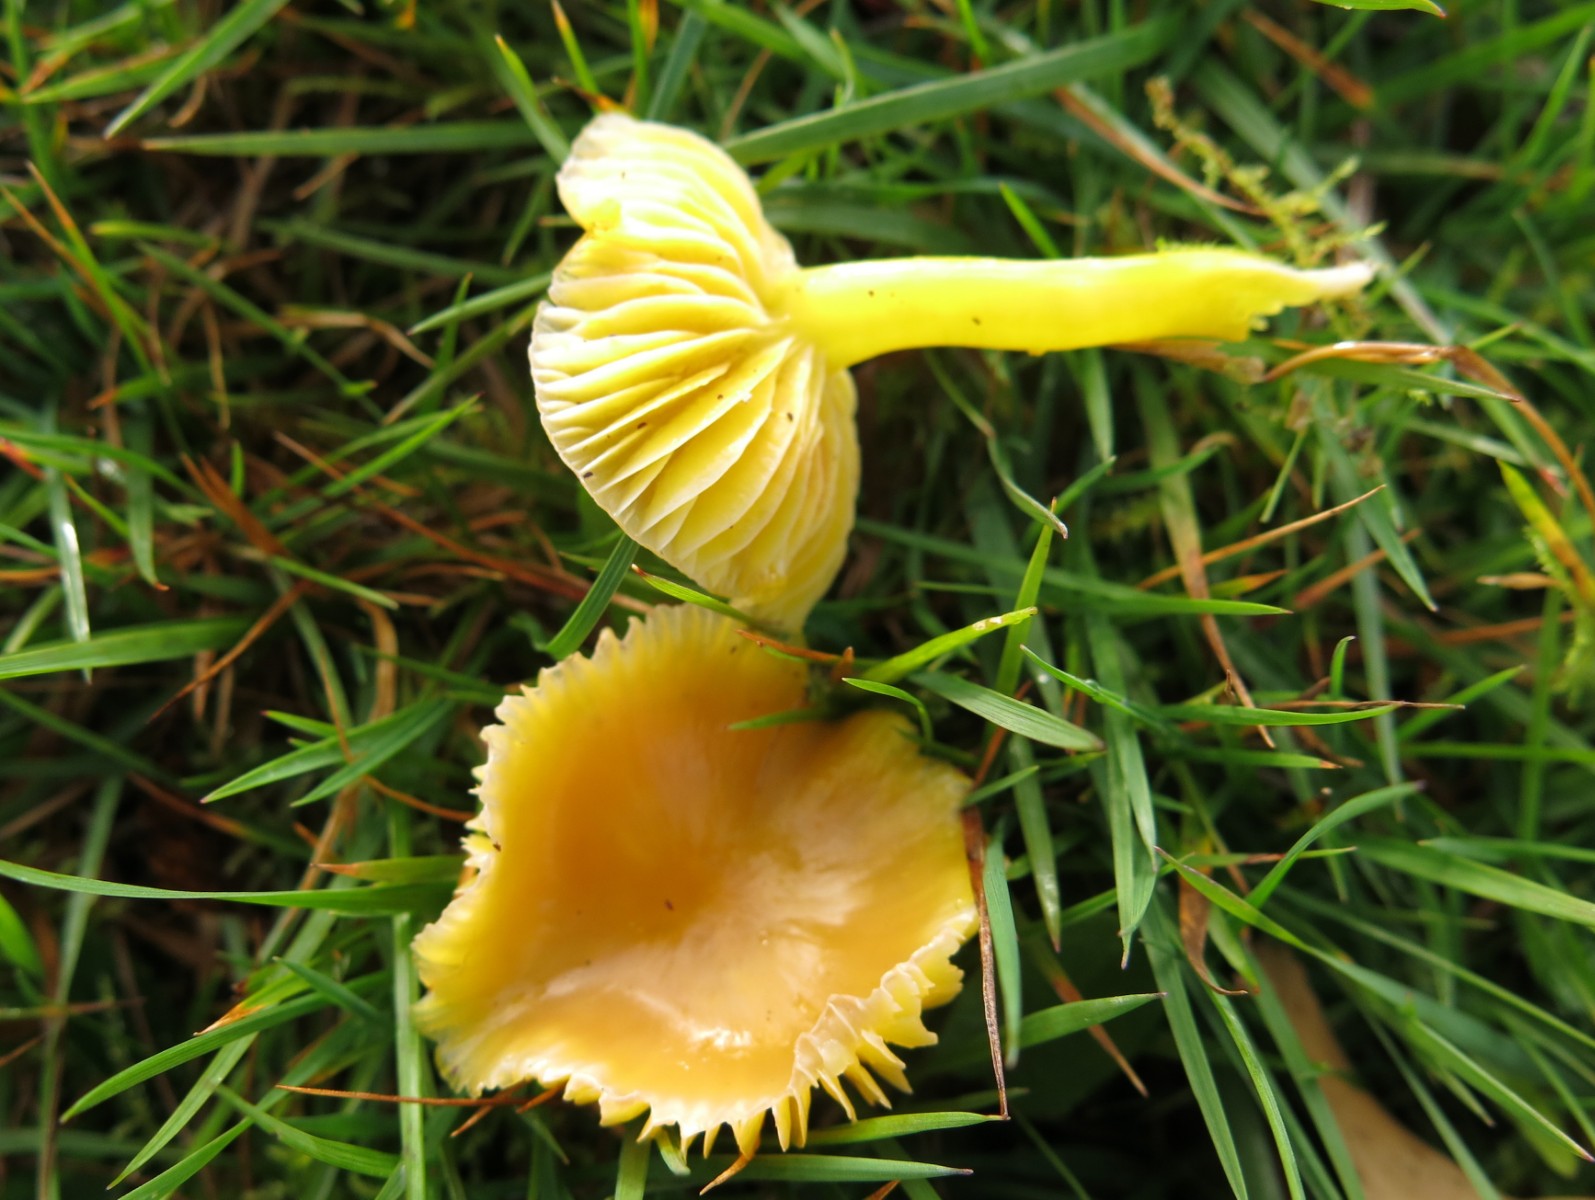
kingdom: Fungi
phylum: Basidiomycota
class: Agaricomycetes
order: Agaricales
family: Hygrophoraceae
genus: Hygrocybe
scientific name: Hygrocybe chlorophana
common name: gul vokshat
